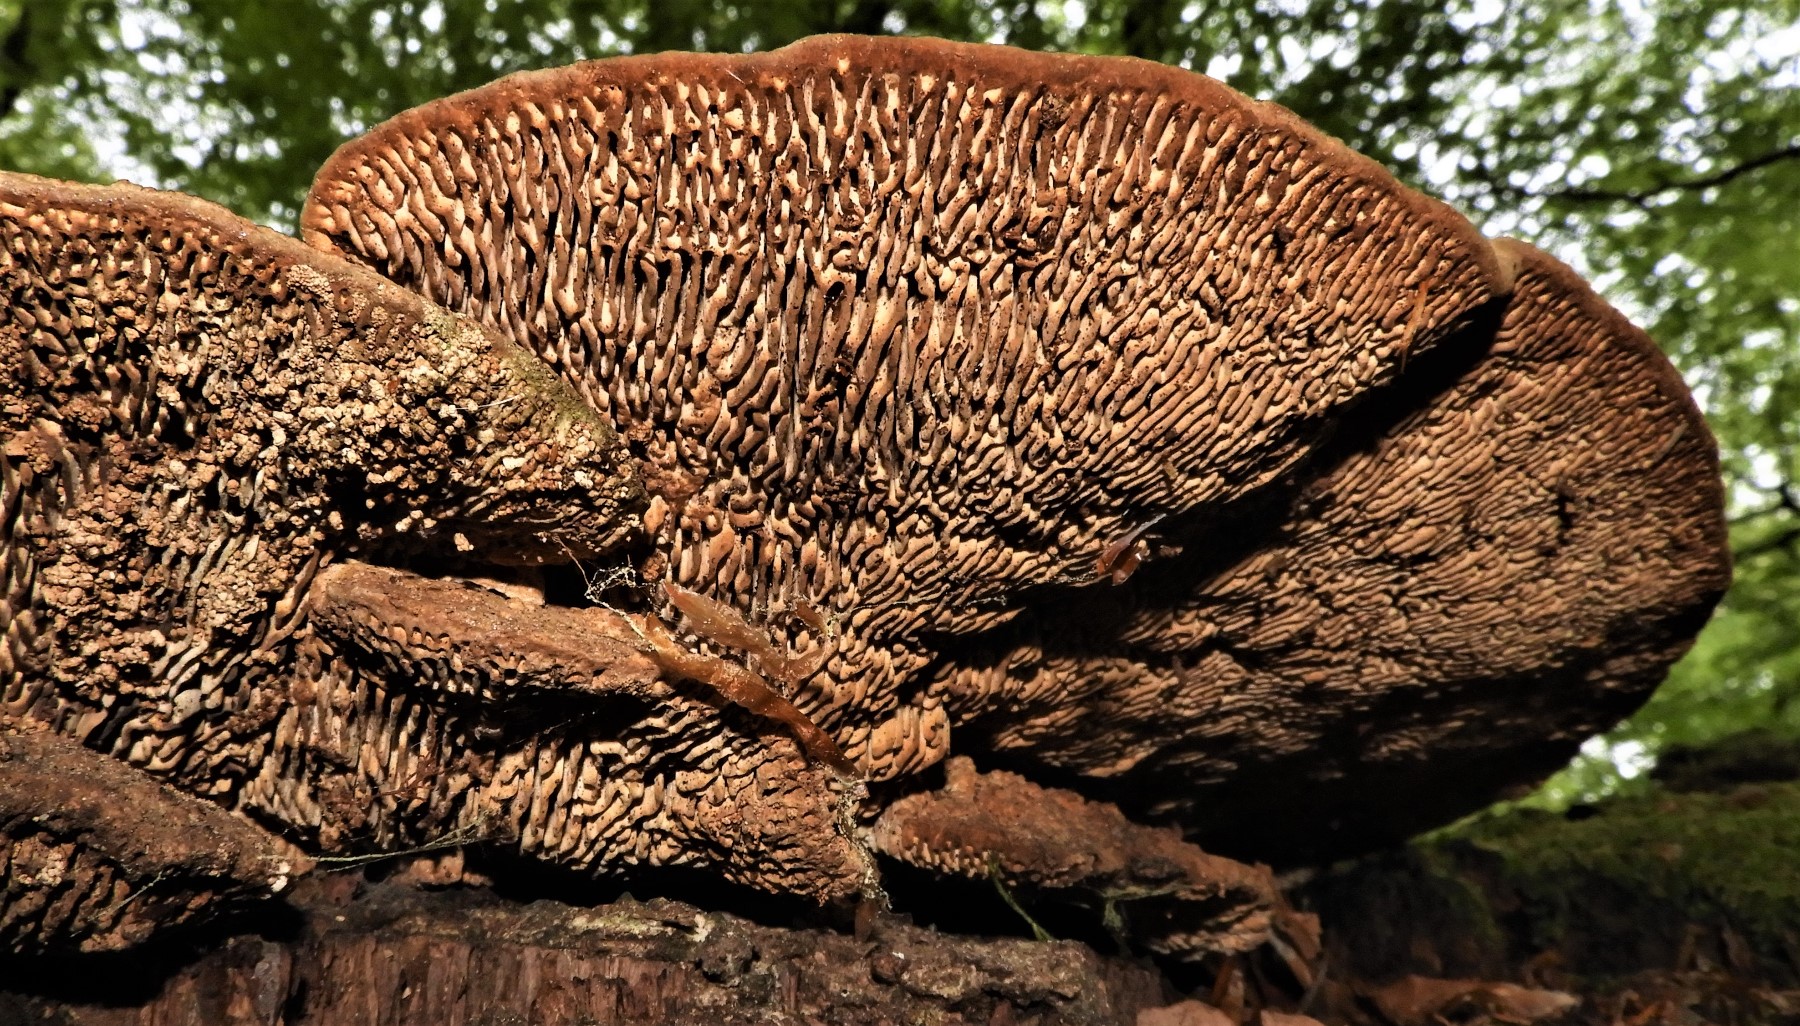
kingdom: Fungi
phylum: Basidiomycota
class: Agaricomycetes
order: Polyporales
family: Polyporaceae
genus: Ganoderma
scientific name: Ganoderma applanatum
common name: flad lakporesvamp
